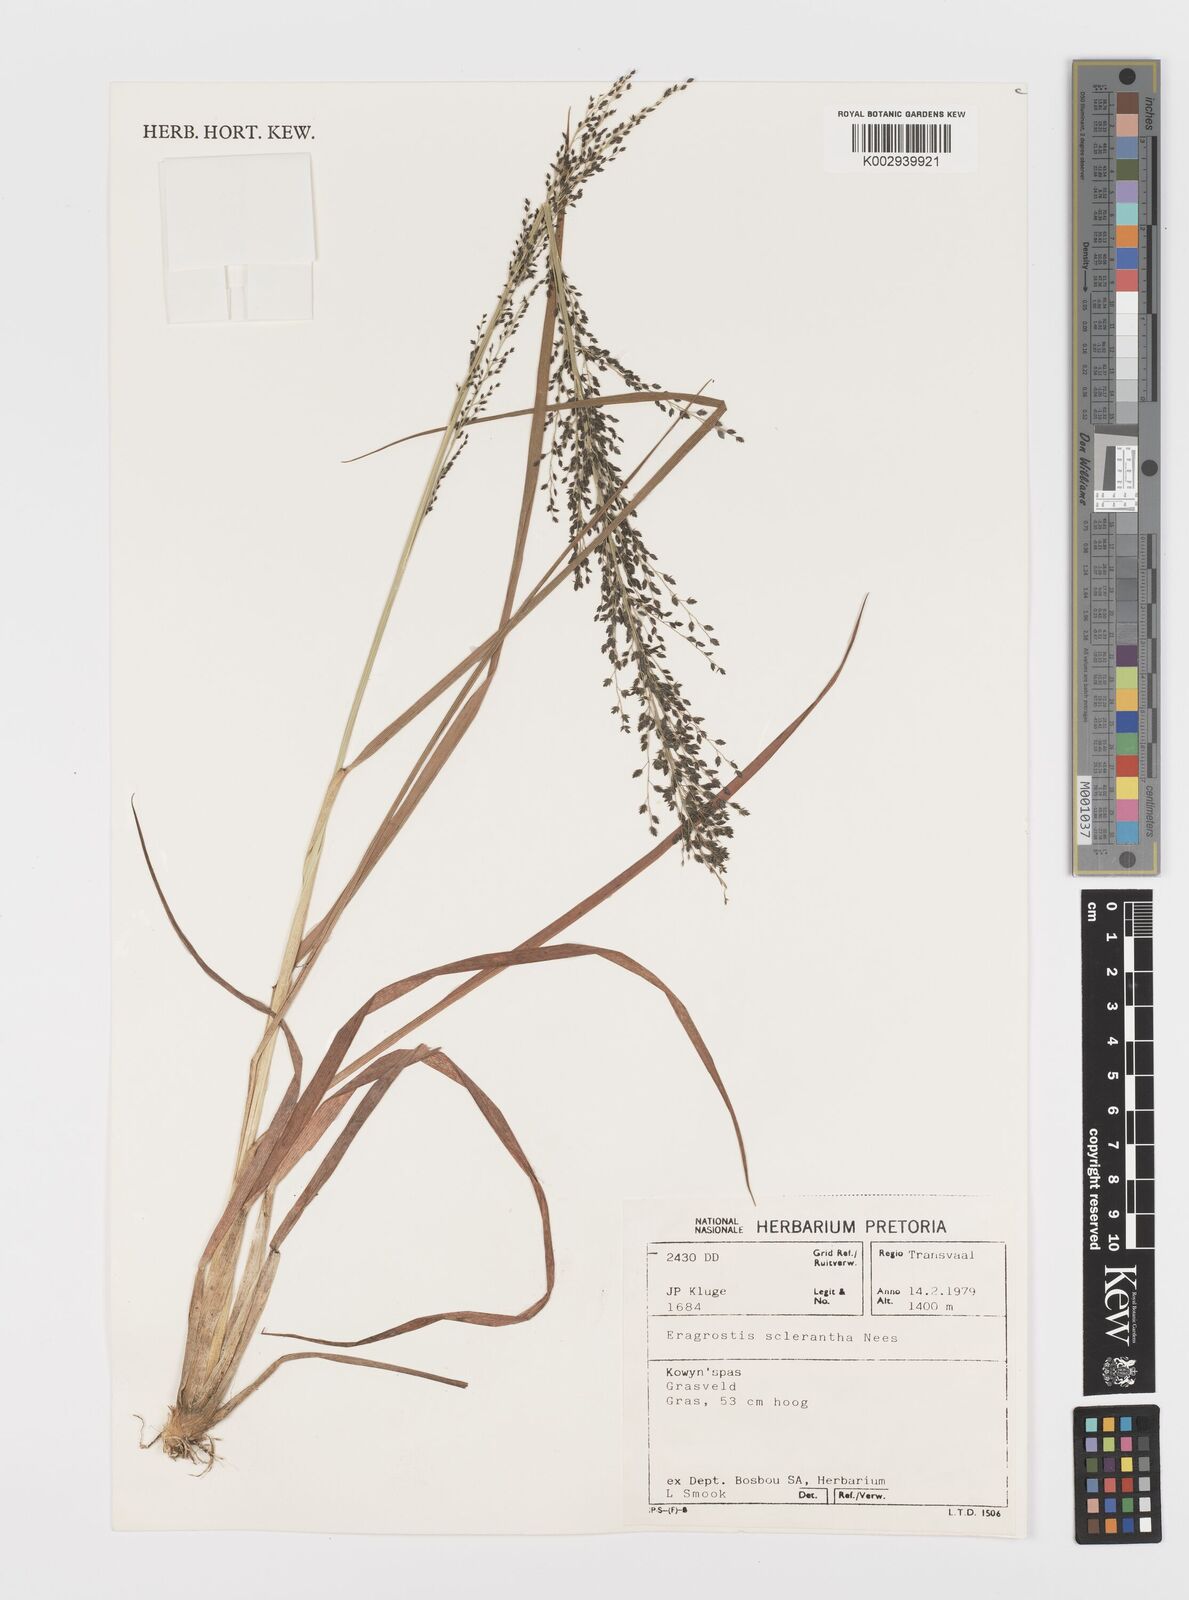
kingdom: Plantae
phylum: Tracheophyta
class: Liliopsida
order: Poales
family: Poaceae
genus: Eragrostis
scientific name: Eragrostis sclerantha
